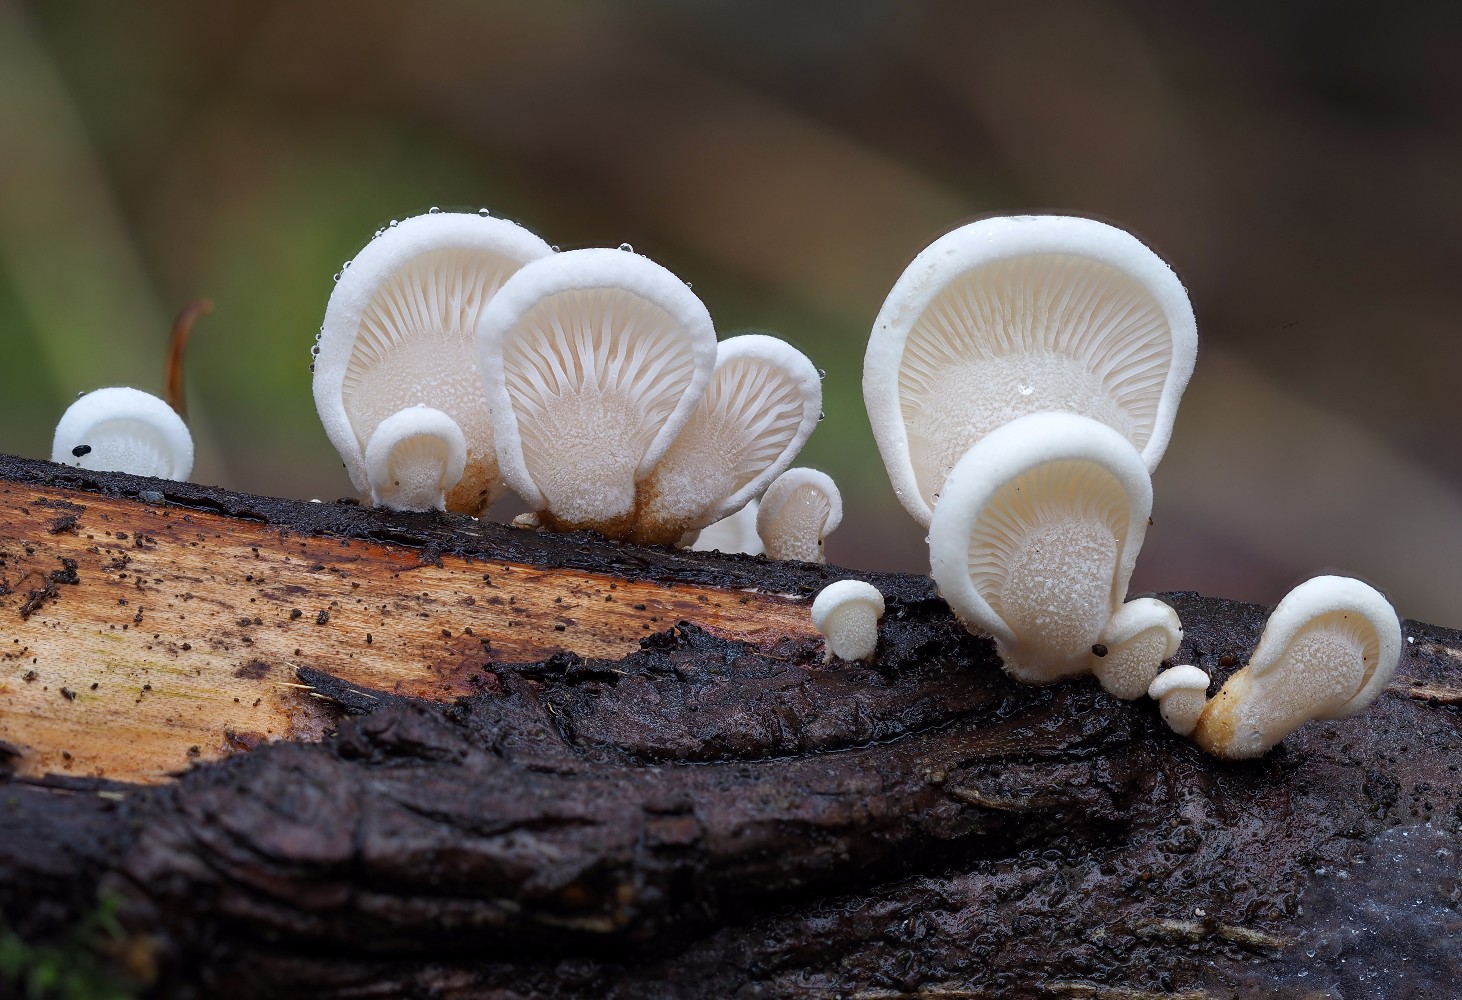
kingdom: Fungi
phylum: Basidiomycota
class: Agaricomycetes
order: Agaricales
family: Mycenaceae
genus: Panellus
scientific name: Panellus mitis
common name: mild epaulethat
